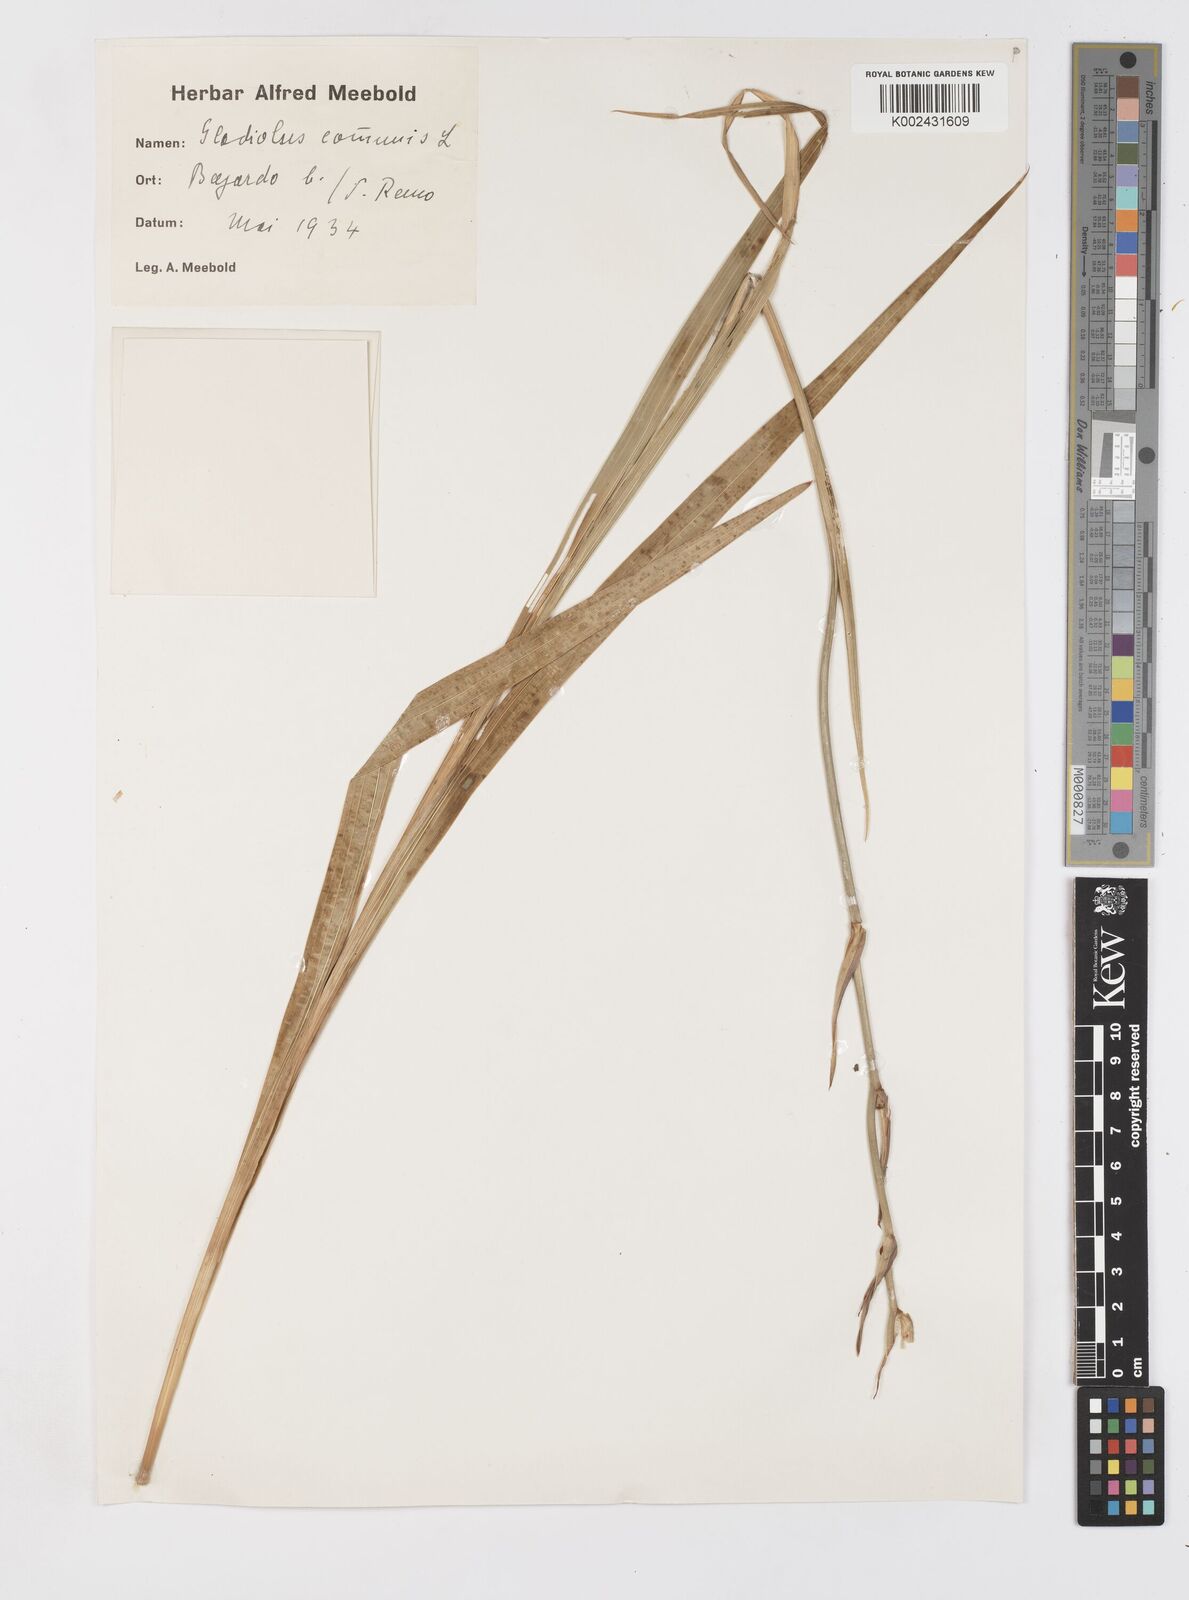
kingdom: Plantae
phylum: Tracheophyta
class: Liliopsida
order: Asparagales
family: Iridaceae
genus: Gladiolus
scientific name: Gladiolus communis
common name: Eastern gladiolus
